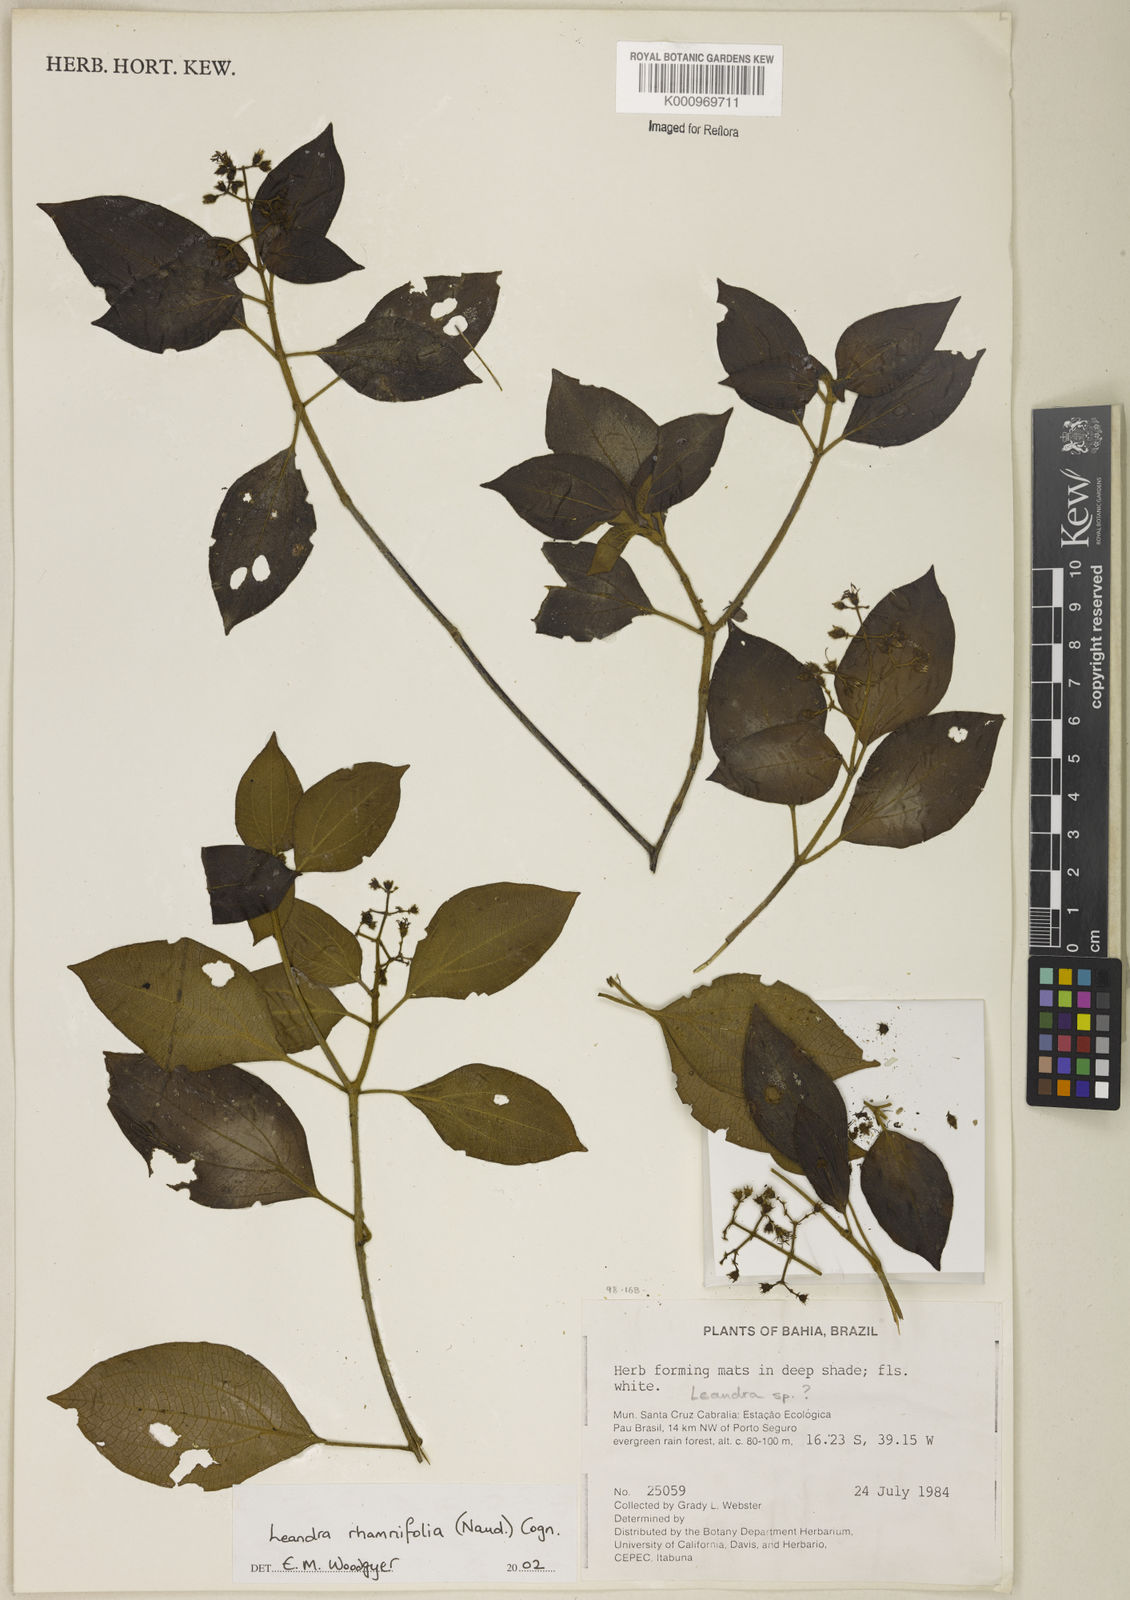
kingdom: Plantae
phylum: Tracheophyta
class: Magnoliopsida
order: Myrtales
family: Melastomataceae
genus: Miconia
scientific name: Miconia rhamnifolia
